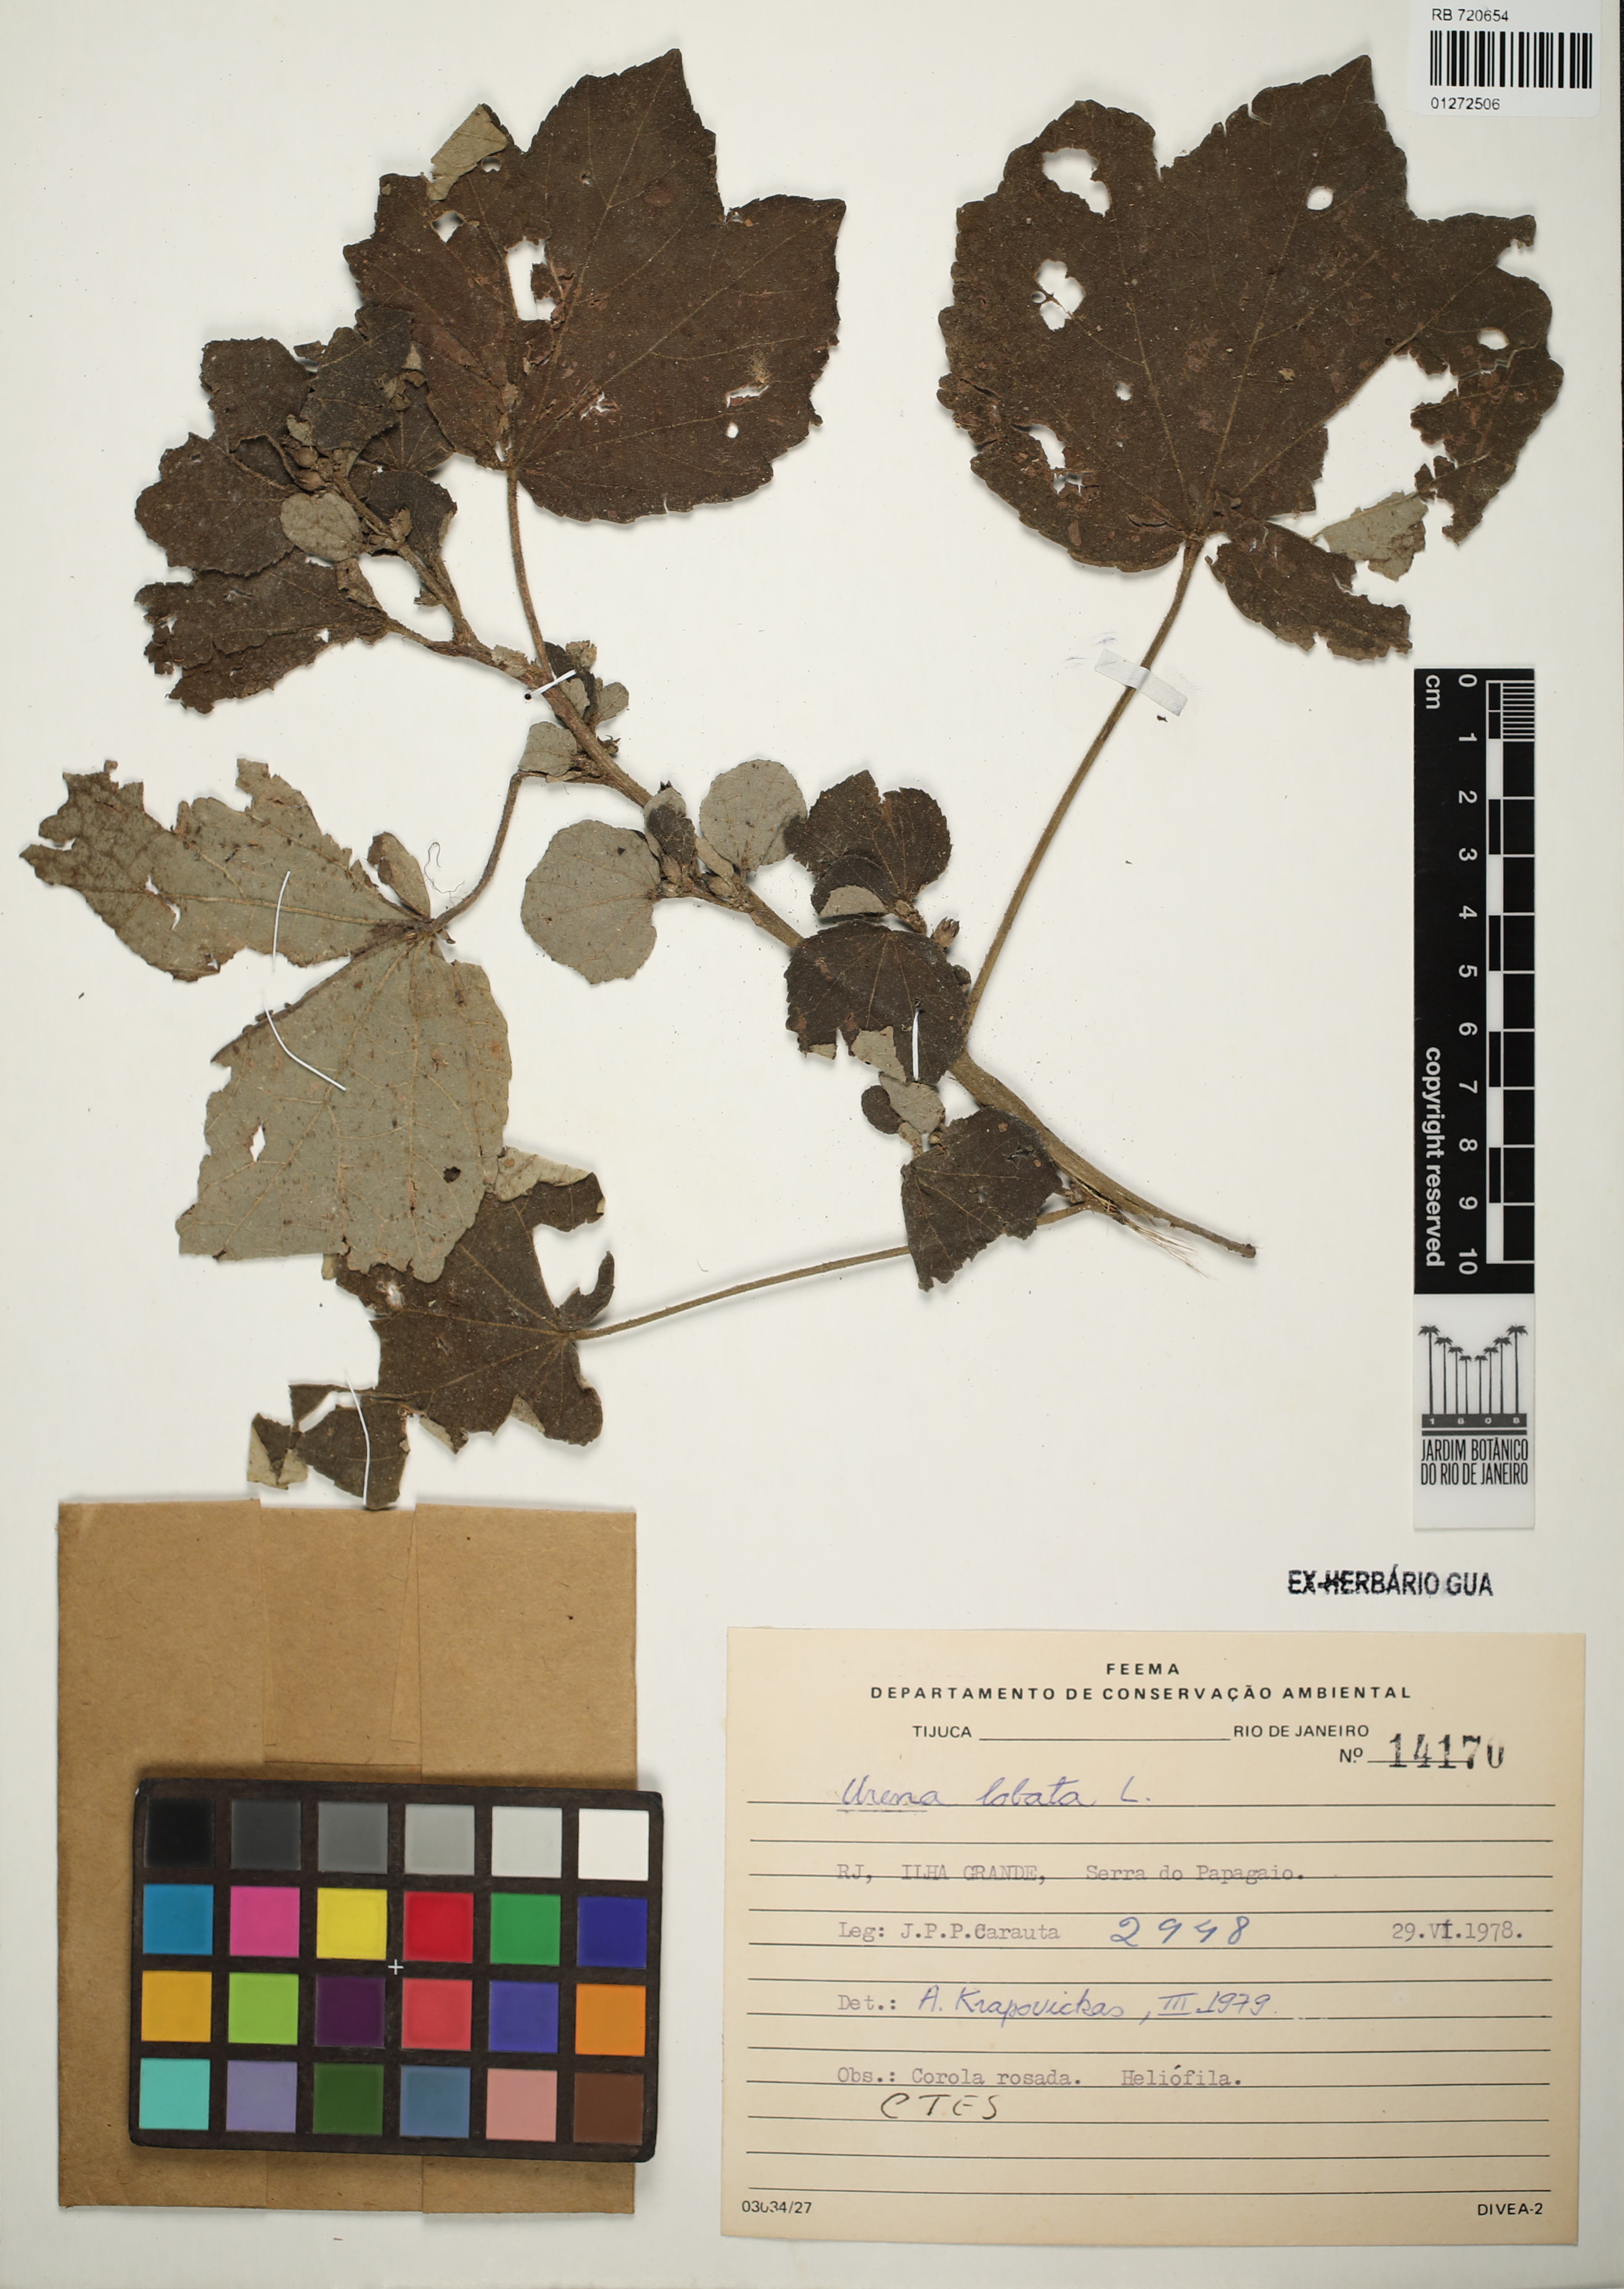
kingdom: Plantae
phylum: Tracheophyta
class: Magnoliopsida
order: Malvales
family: Malvaceae
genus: Urena
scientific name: Urena lobata
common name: Caesarweed
